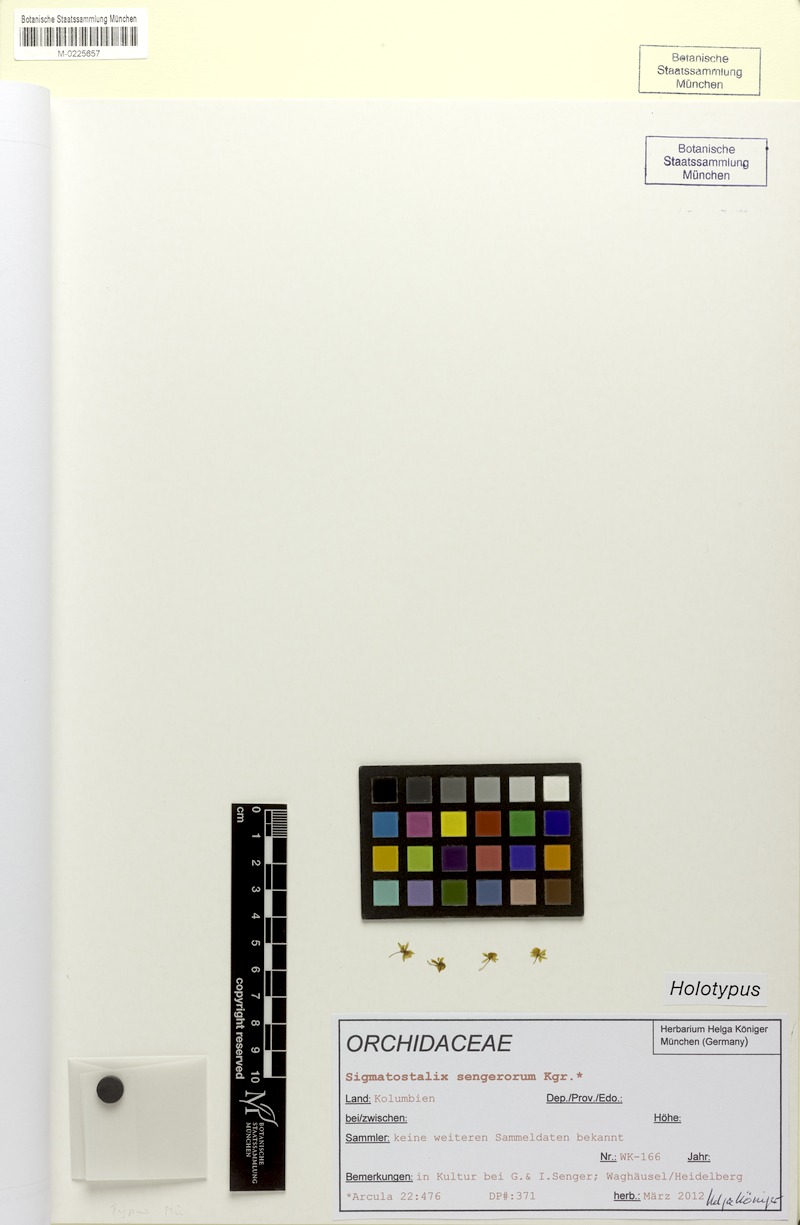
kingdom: Plantae
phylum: Tracheophyta
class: Liliopsida
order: Asparagales
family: Orchidaceae
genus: Oncidium
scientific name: Oncidium sengerorum
